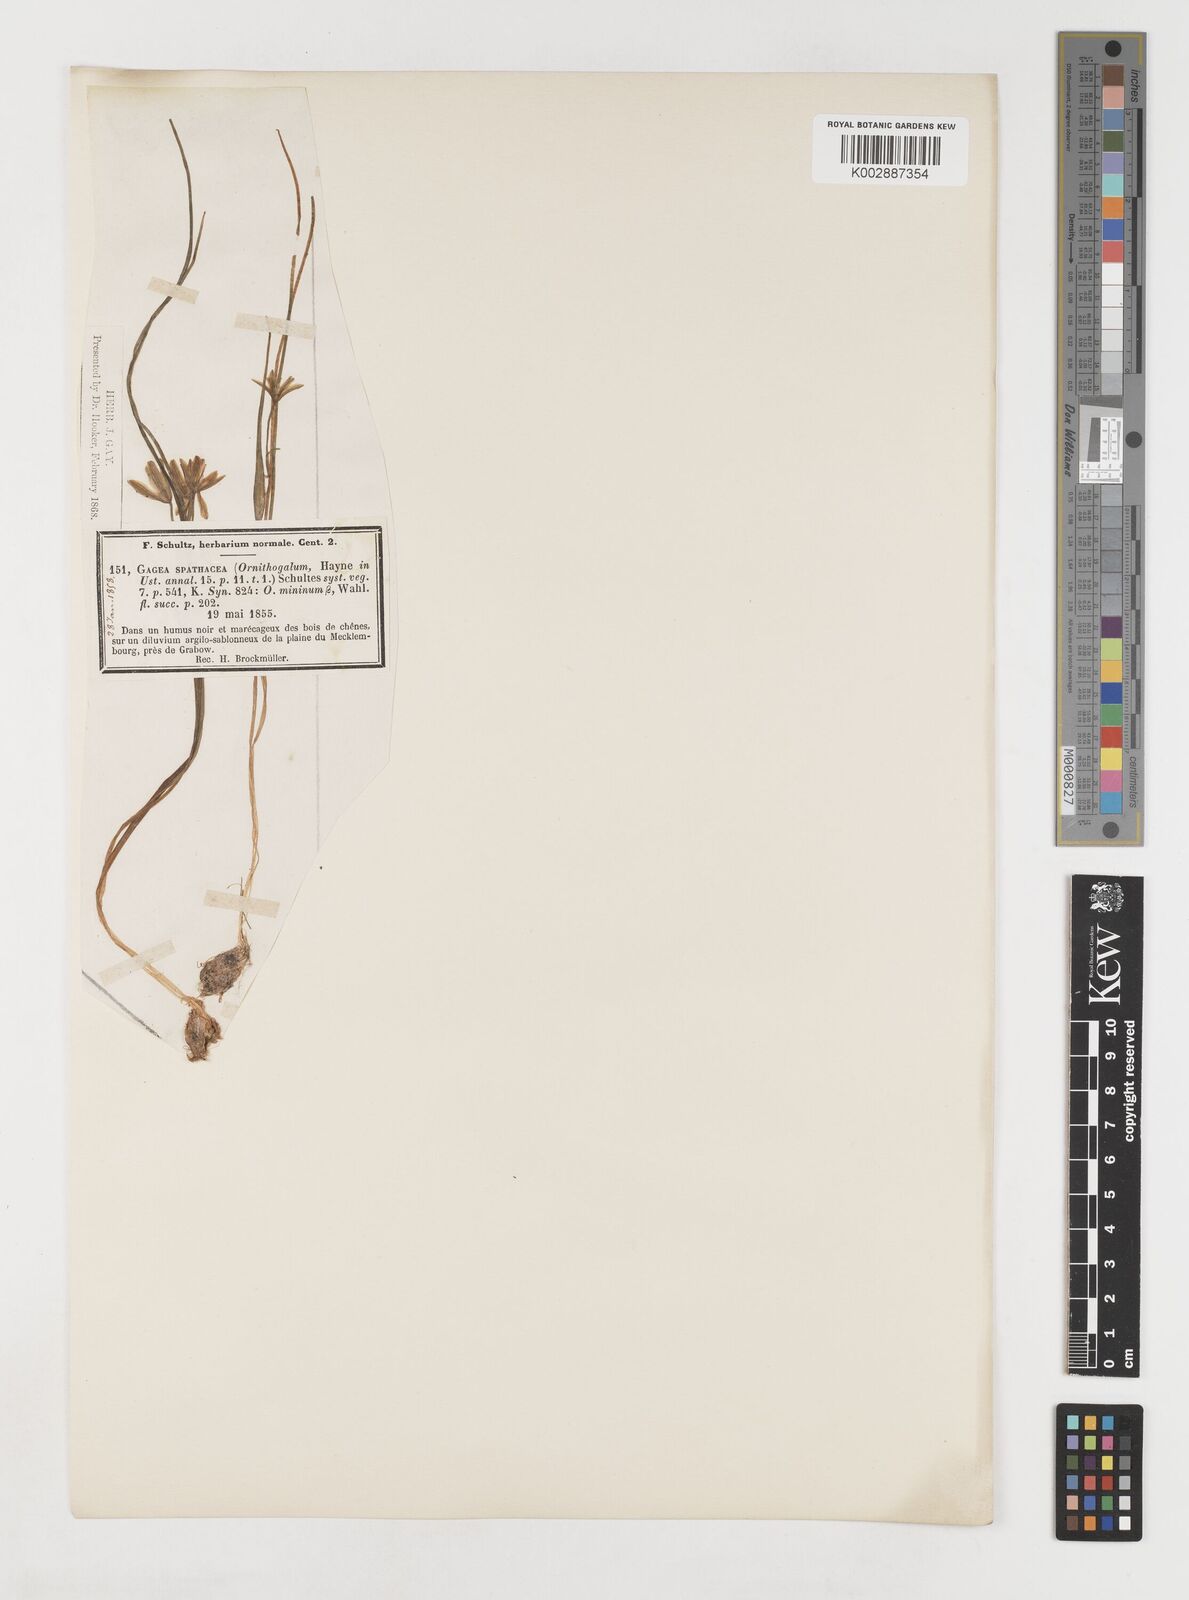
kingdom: Plantae
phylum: Tracheophyta
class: Liliopsida
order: Liliales
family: Liliaceae
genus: Gagea
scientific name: Gagea spathacea
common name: Belgian gagea
